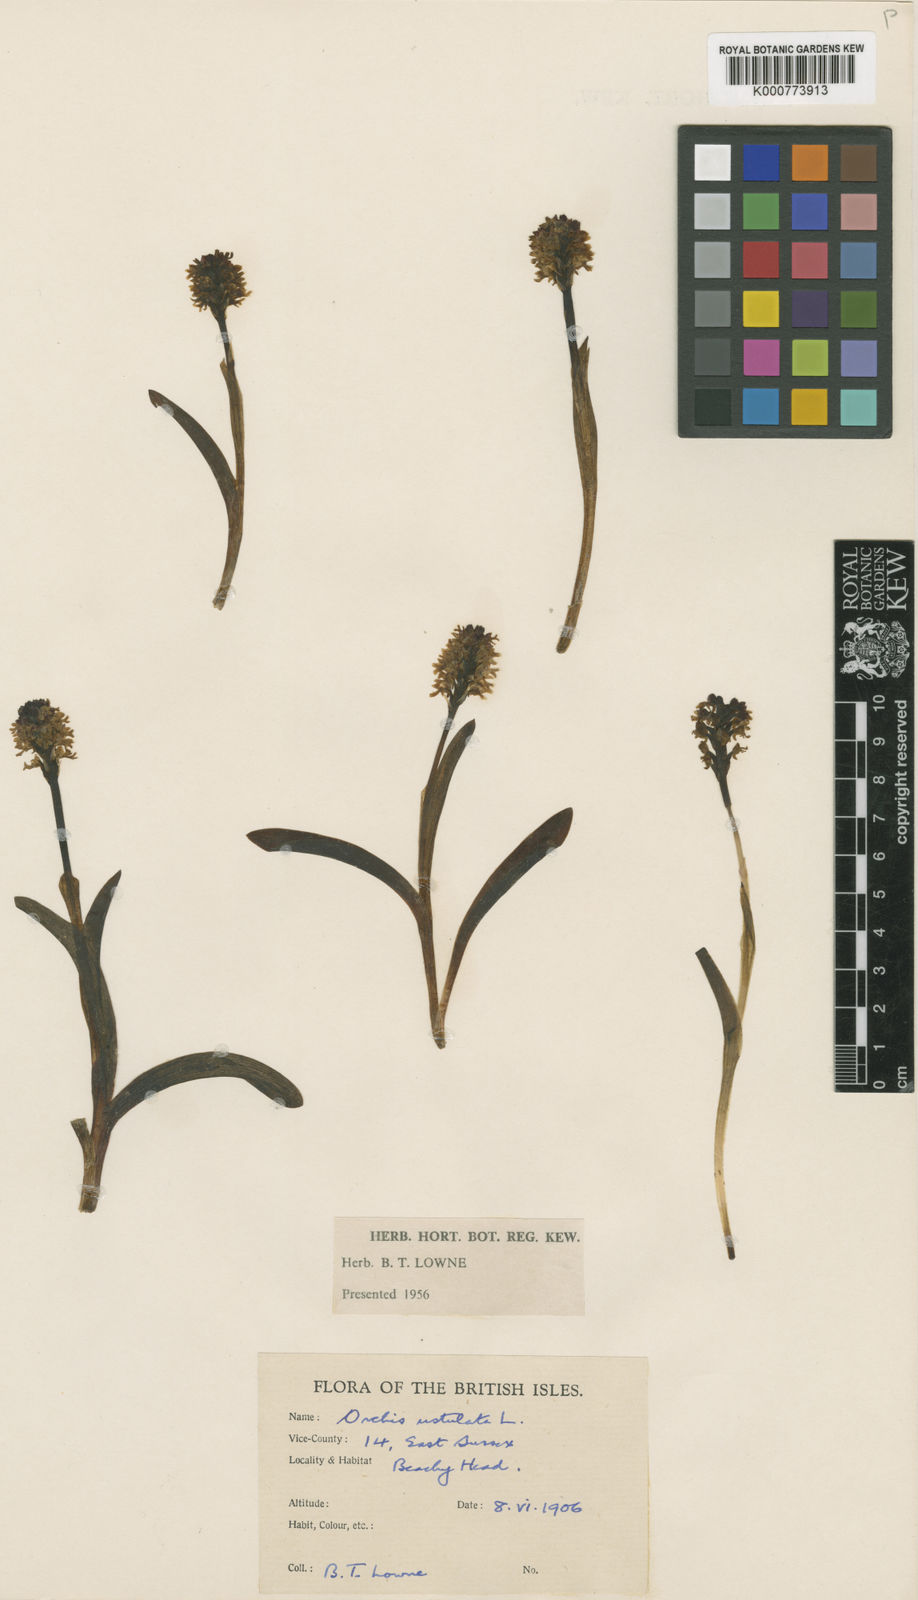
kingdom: Plantae
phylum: Tracheophyta
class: Liliopsida
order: Asparagales
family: Orchidaceae
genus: Neotinea
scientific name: Neotinea ustulata
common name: Burnt orchid
